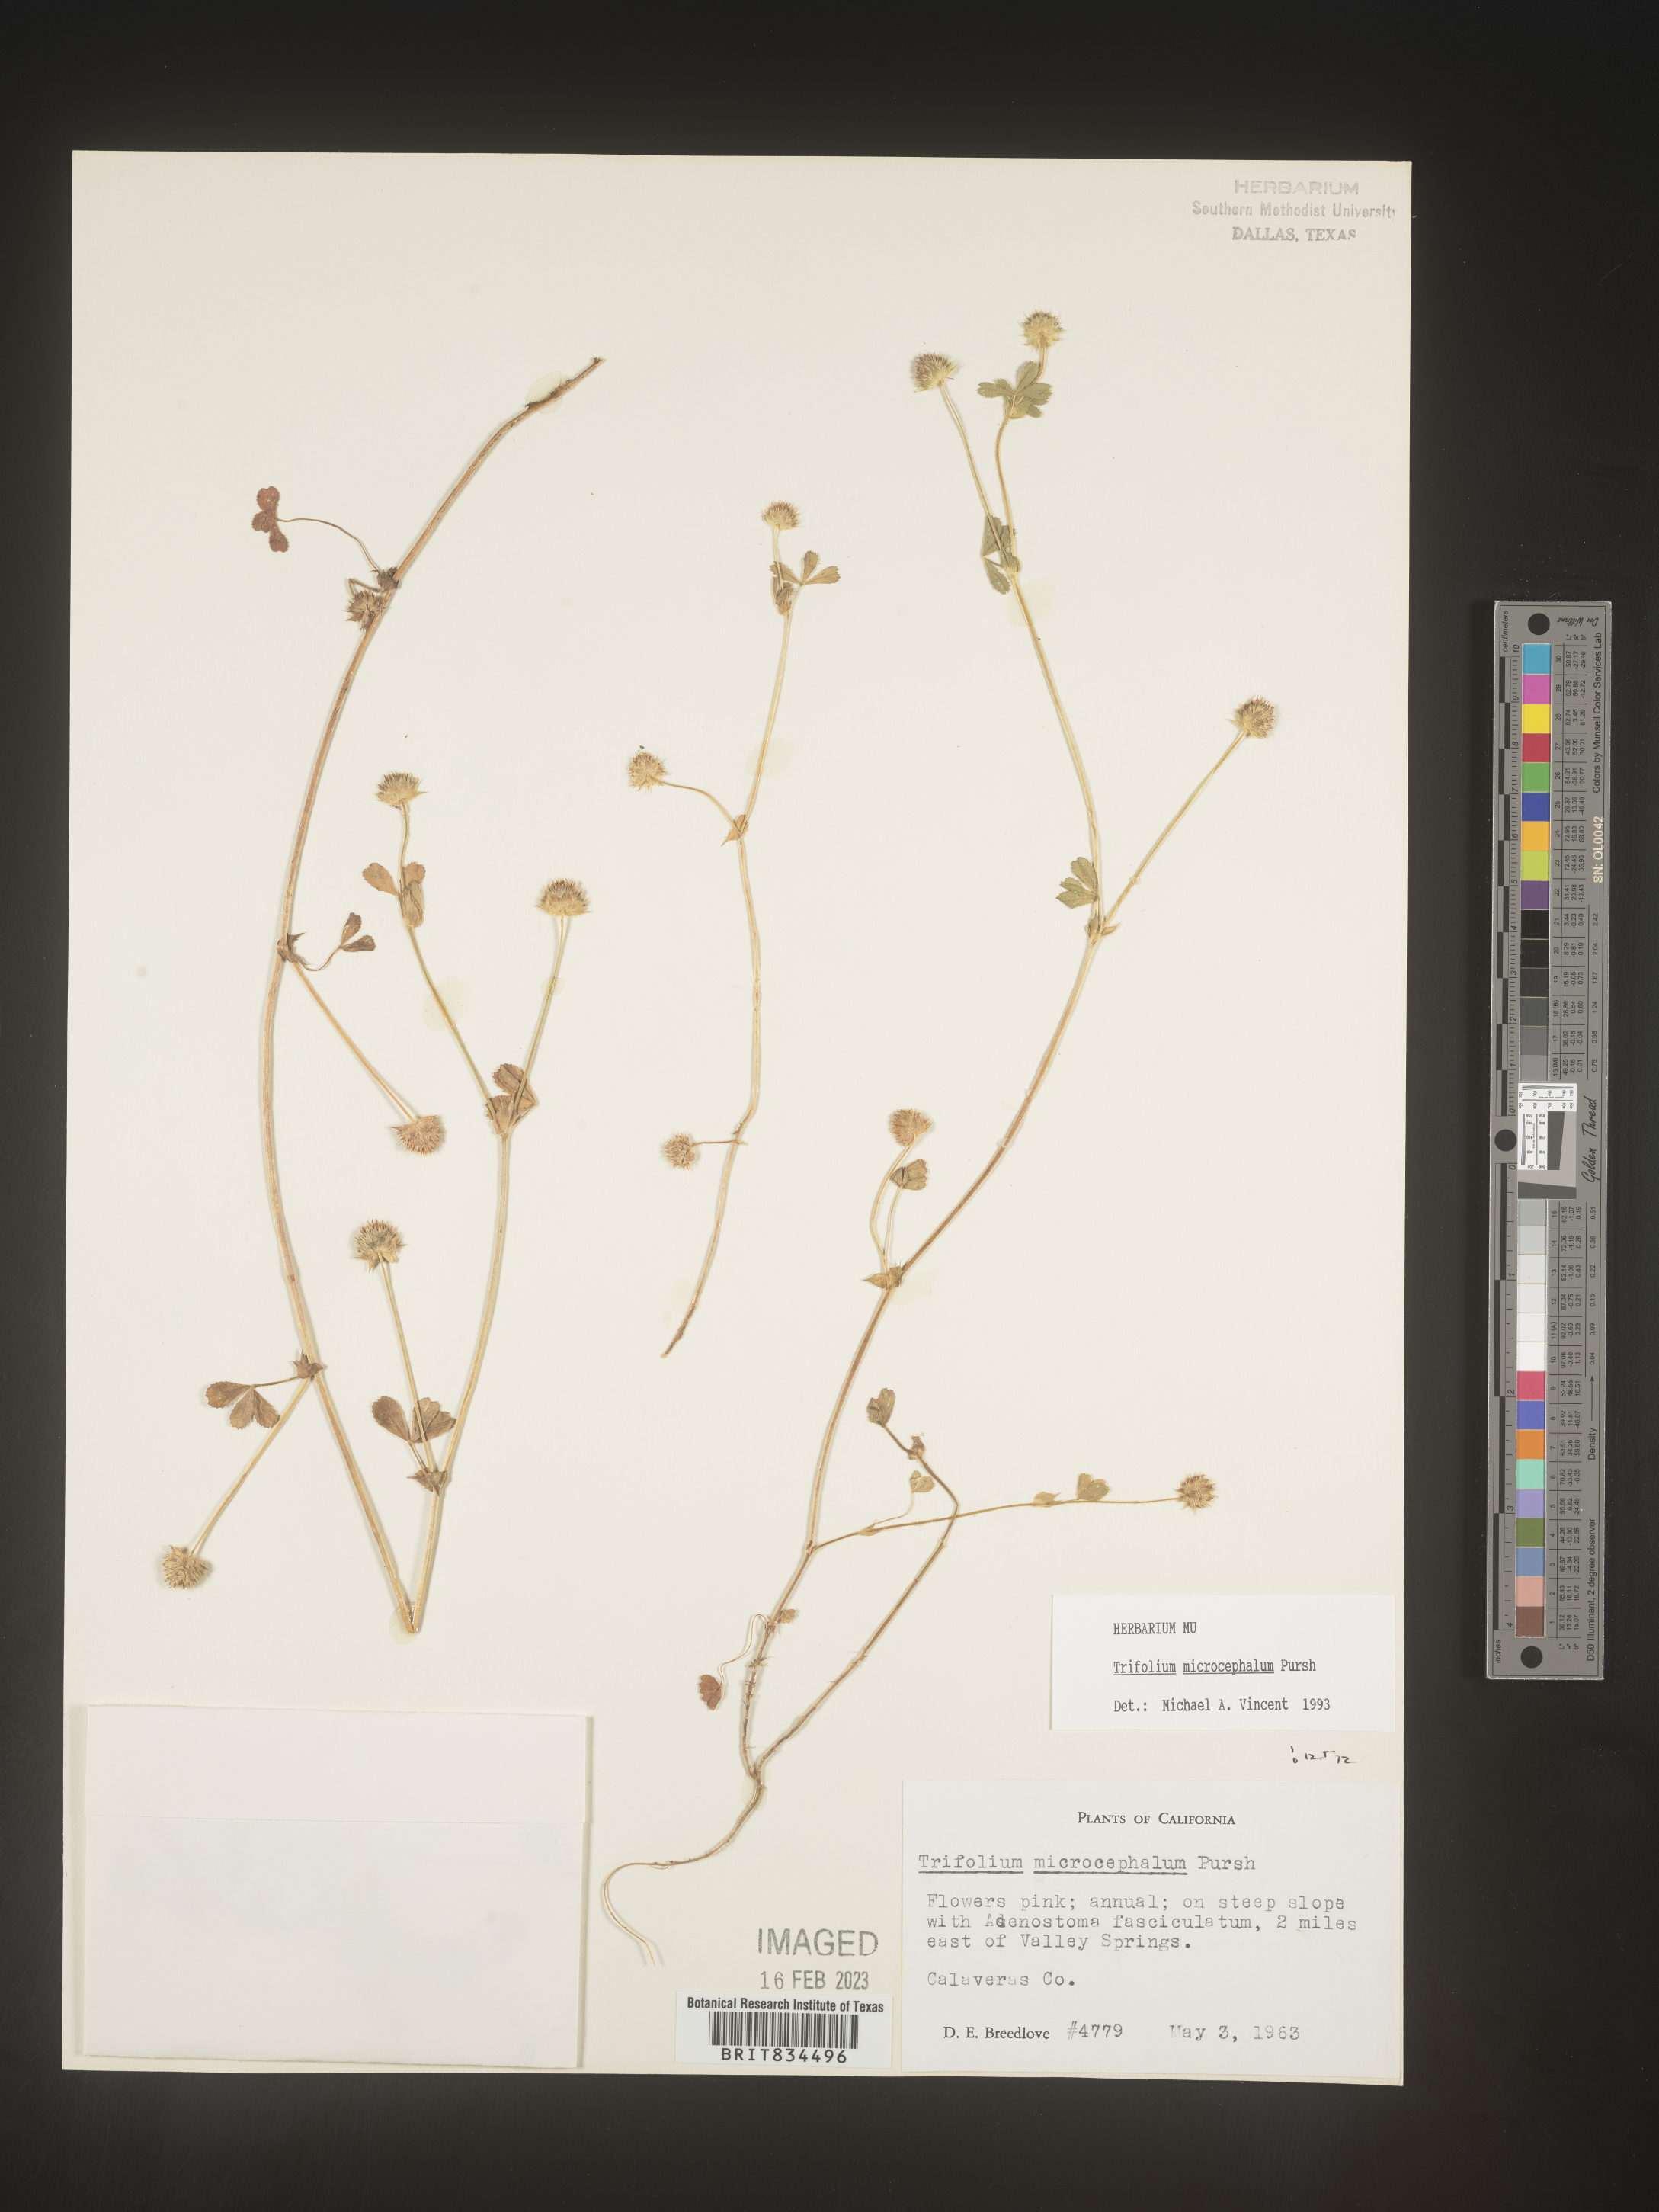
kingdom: Plantae
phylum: Tracheophyta
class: Magnoliopsida
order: Fabales
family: Fabaceae
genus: Trifolium
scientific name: Trifolium
